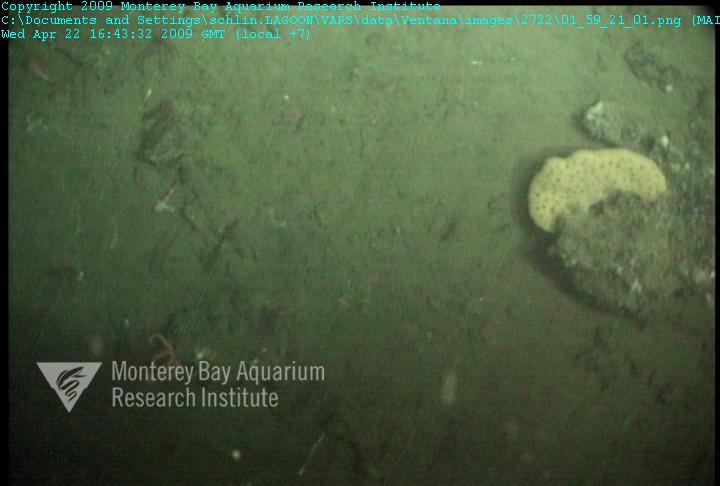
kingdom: Animalia
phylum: Porifera
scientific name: Porifera
